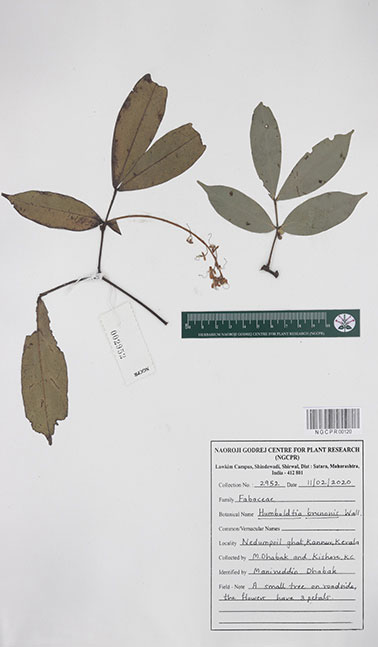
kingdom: Plantae
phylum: Tracheophyta
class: Magnoliopsida
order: Fabales
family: Fabaceae
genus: Humboldtia
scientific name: Humboldtia brunonis
